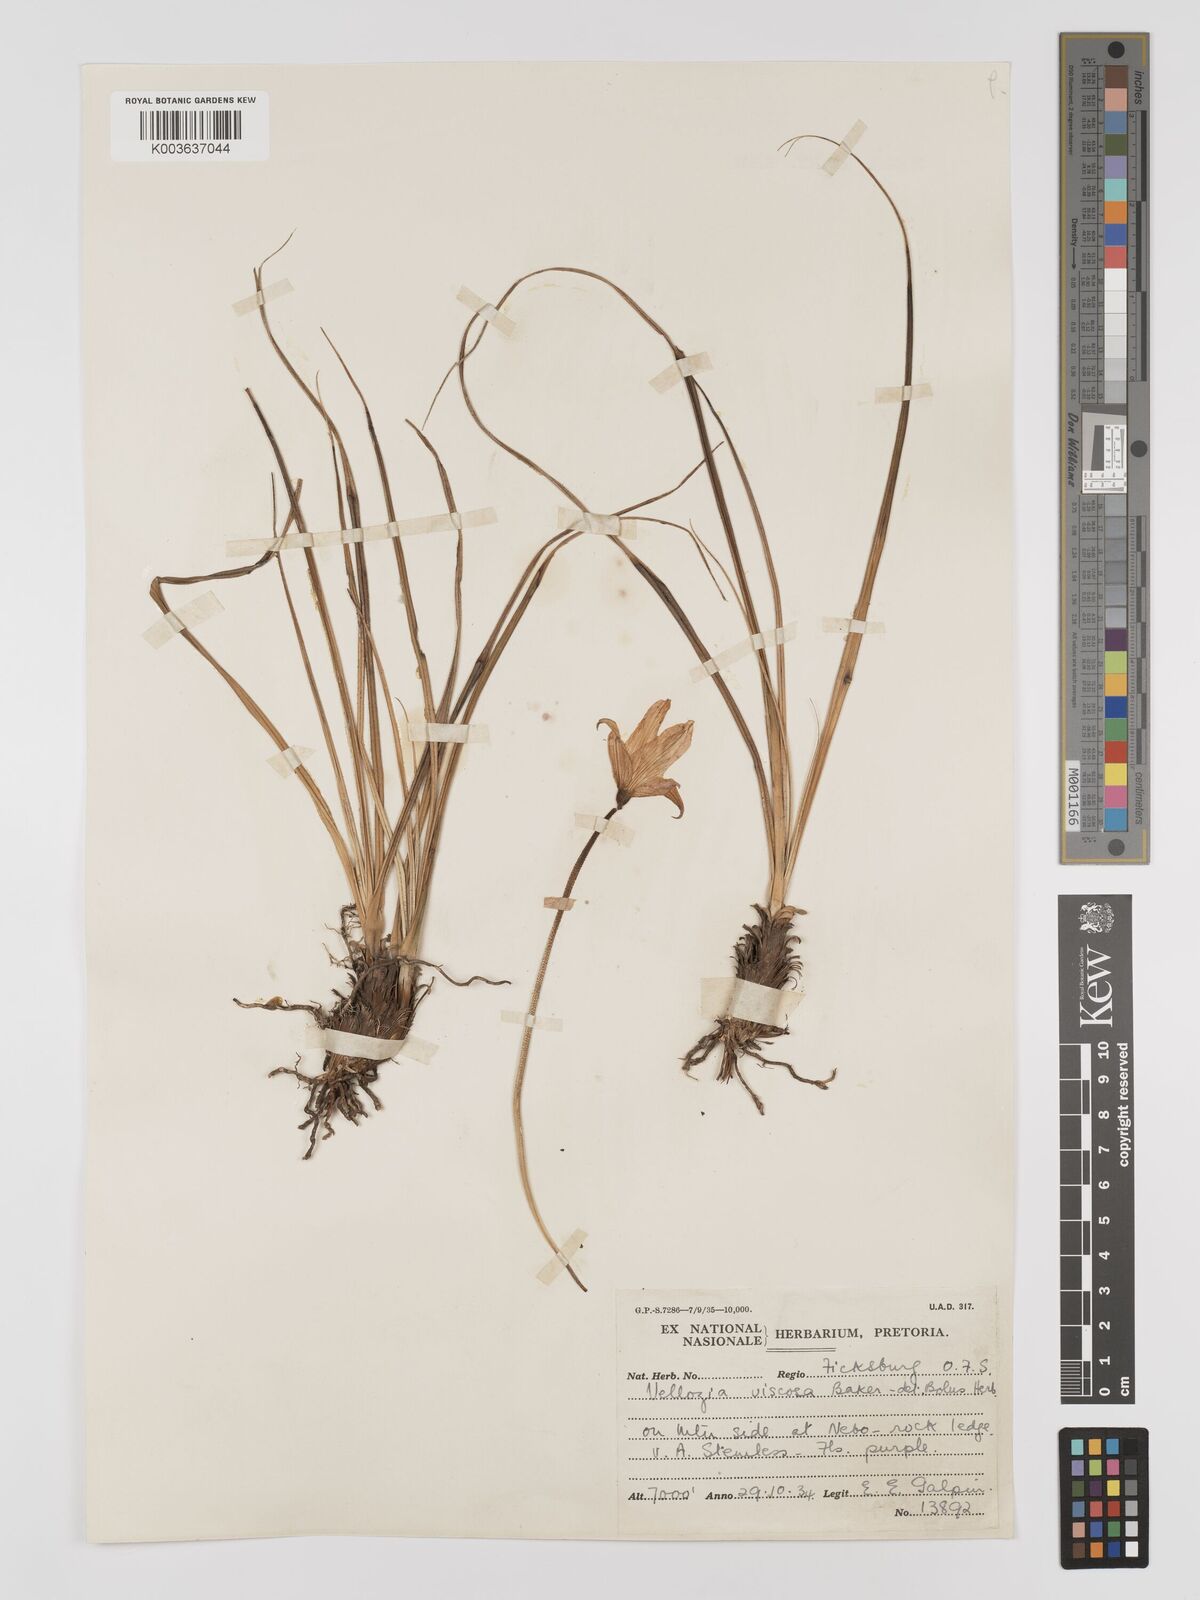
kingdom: Plantae
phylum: Tracheophyta
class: Liliopsida
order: Pandanales
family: Velloziaceae
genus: Xerophyta
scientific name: Xerophyta viscosa
